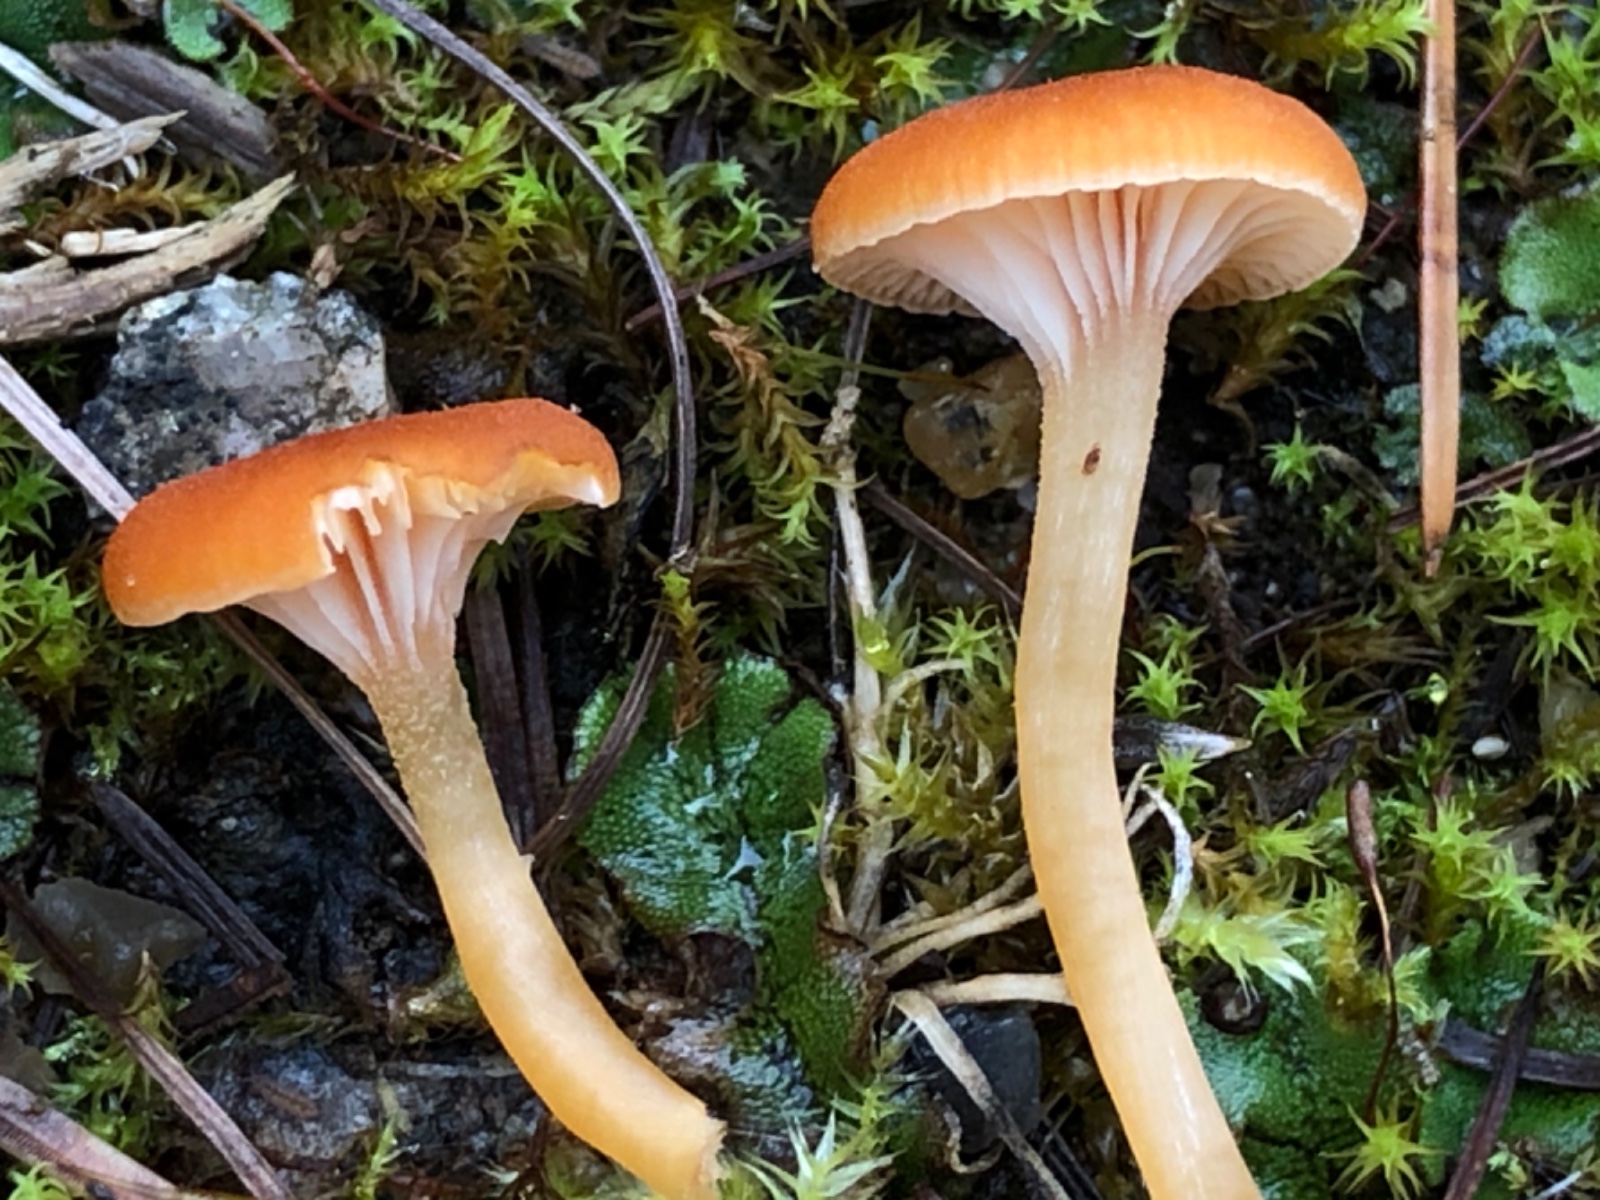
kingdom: Fungi
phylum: Basidiomycota
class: Agaricomycetes
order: Hymenochaetales
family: Rickenellaceae
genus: Loreleia
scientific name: Loreleia postii
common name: brandplet-mosnavlehat
